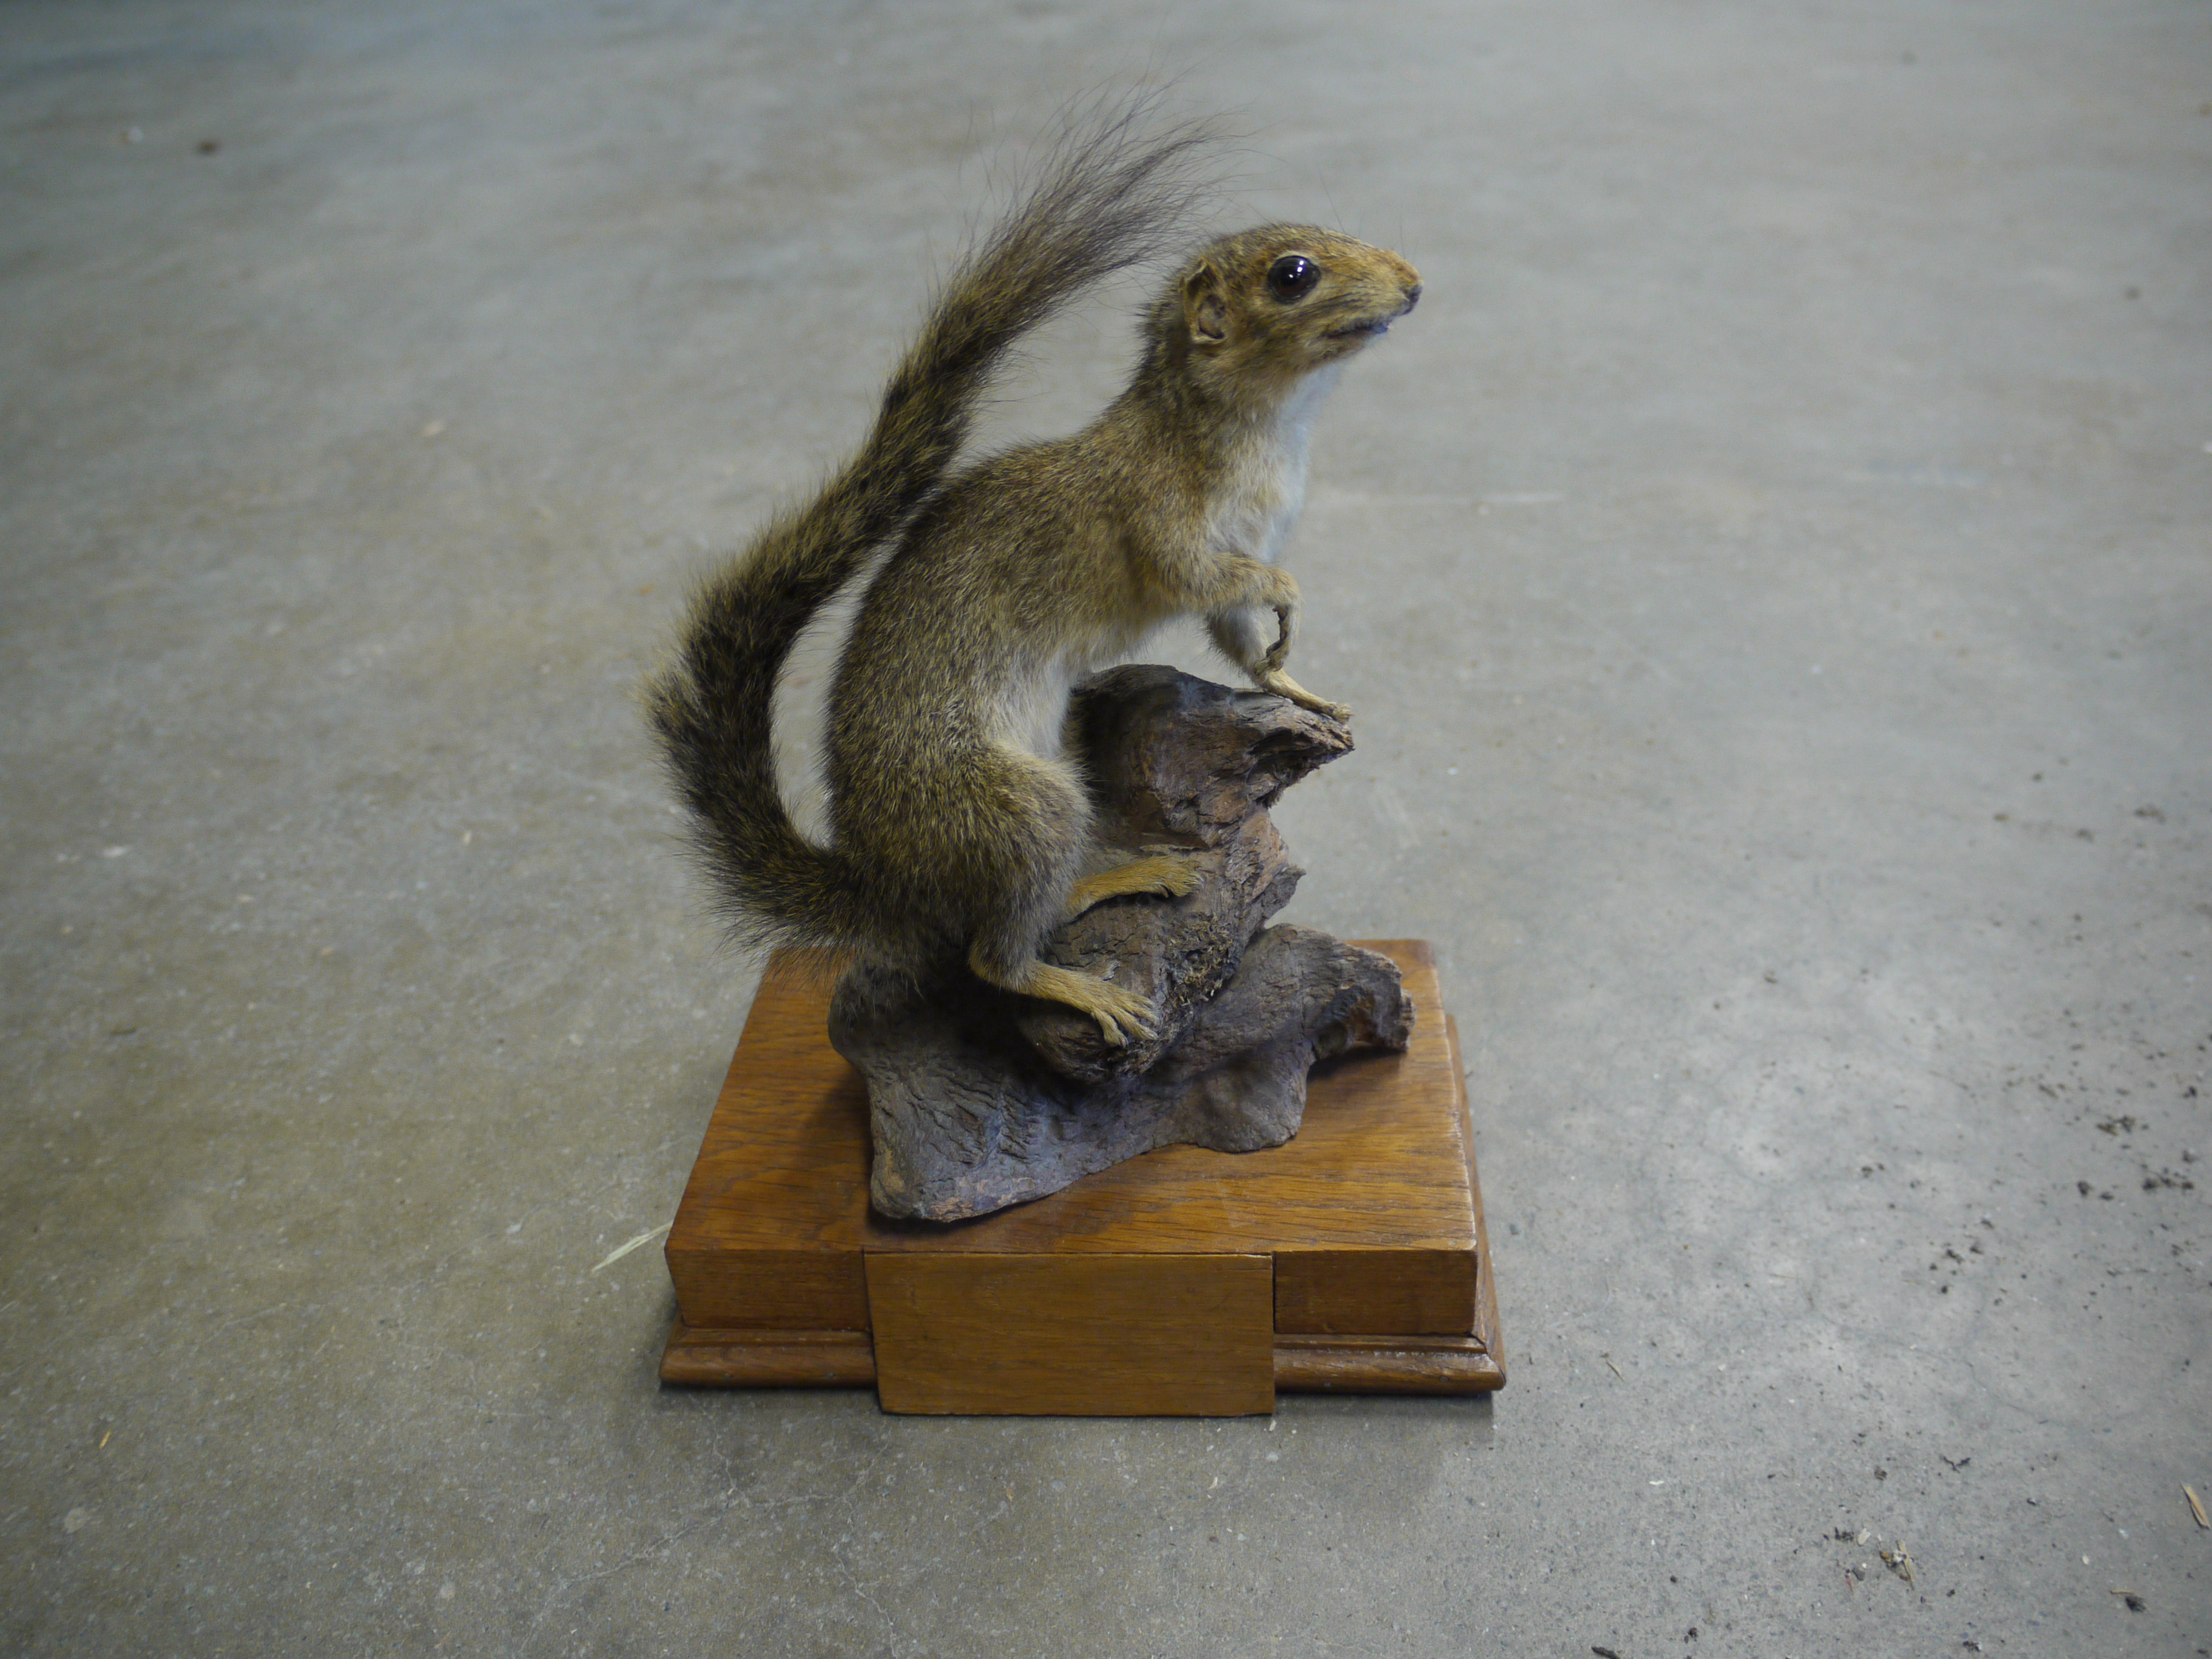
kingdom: Animalia
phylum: Chordata
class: Mammalia
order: Rodentia
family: Sciuridae
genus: Sciurus
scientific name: Sciurus carolinensis
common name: Eastern gray squirrel
